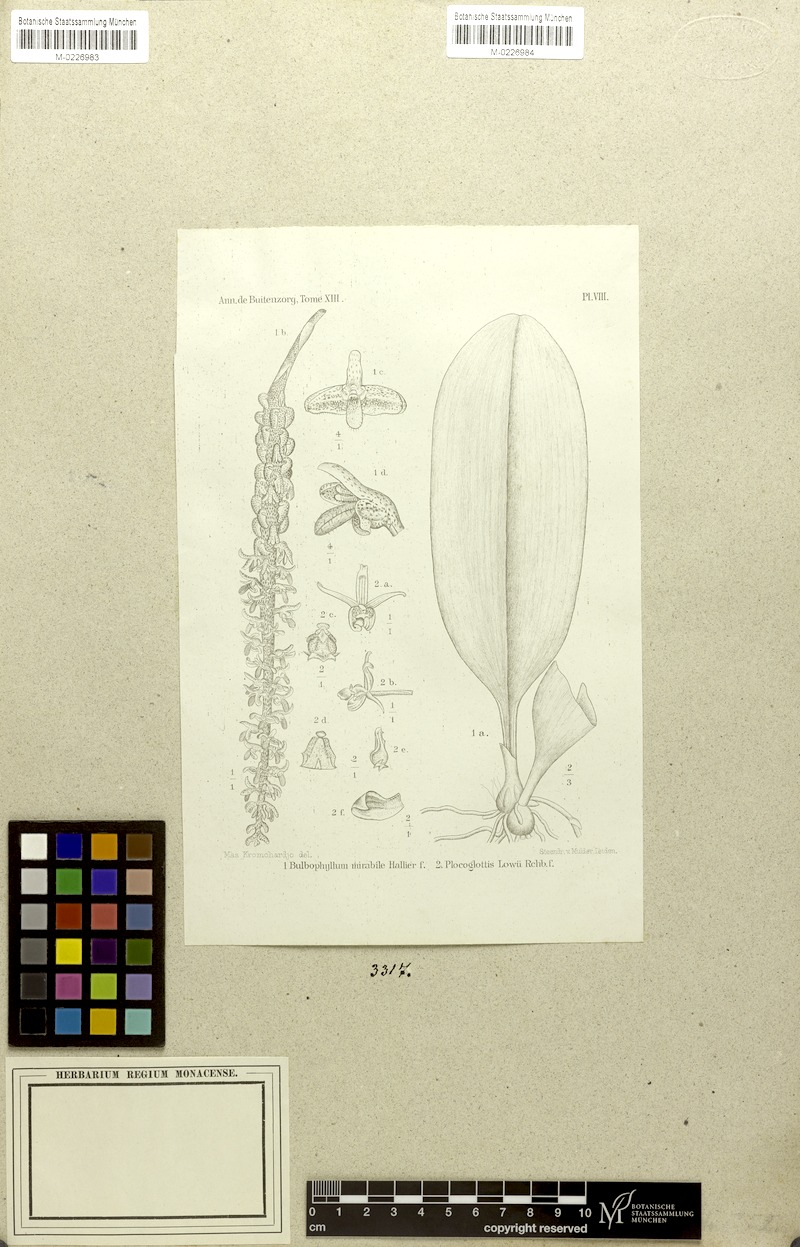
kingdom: Plantae
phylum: Tracheophyta
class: Liliopsida
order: Asparagales
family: Orchidaceae
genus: Bulbophyllum
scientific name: Bulbophyllum mirabile
